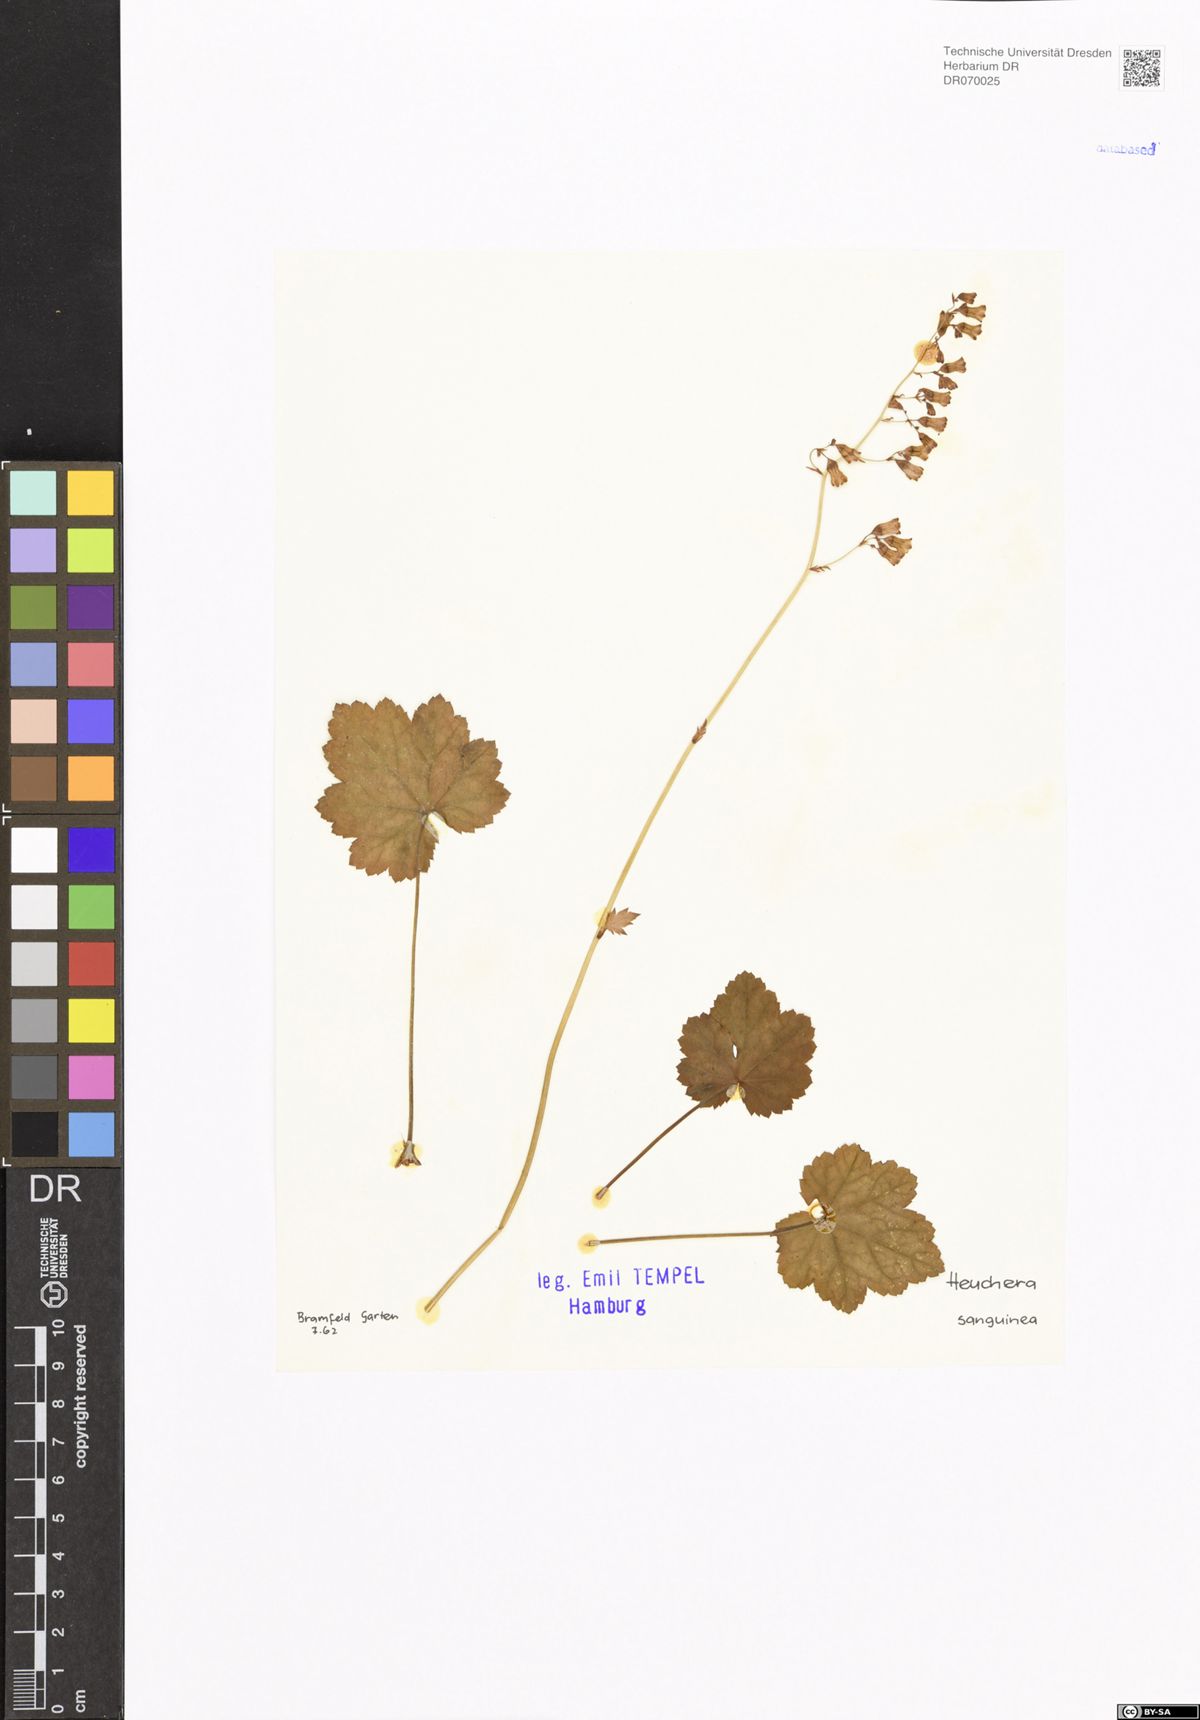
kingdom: Plantae
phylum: Tracheophyta
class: Magnoliopsida
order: Saxifragales
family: Saxifragaceae
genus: Heuchera
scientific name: Heuchera sanguinea
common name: Coralbells
